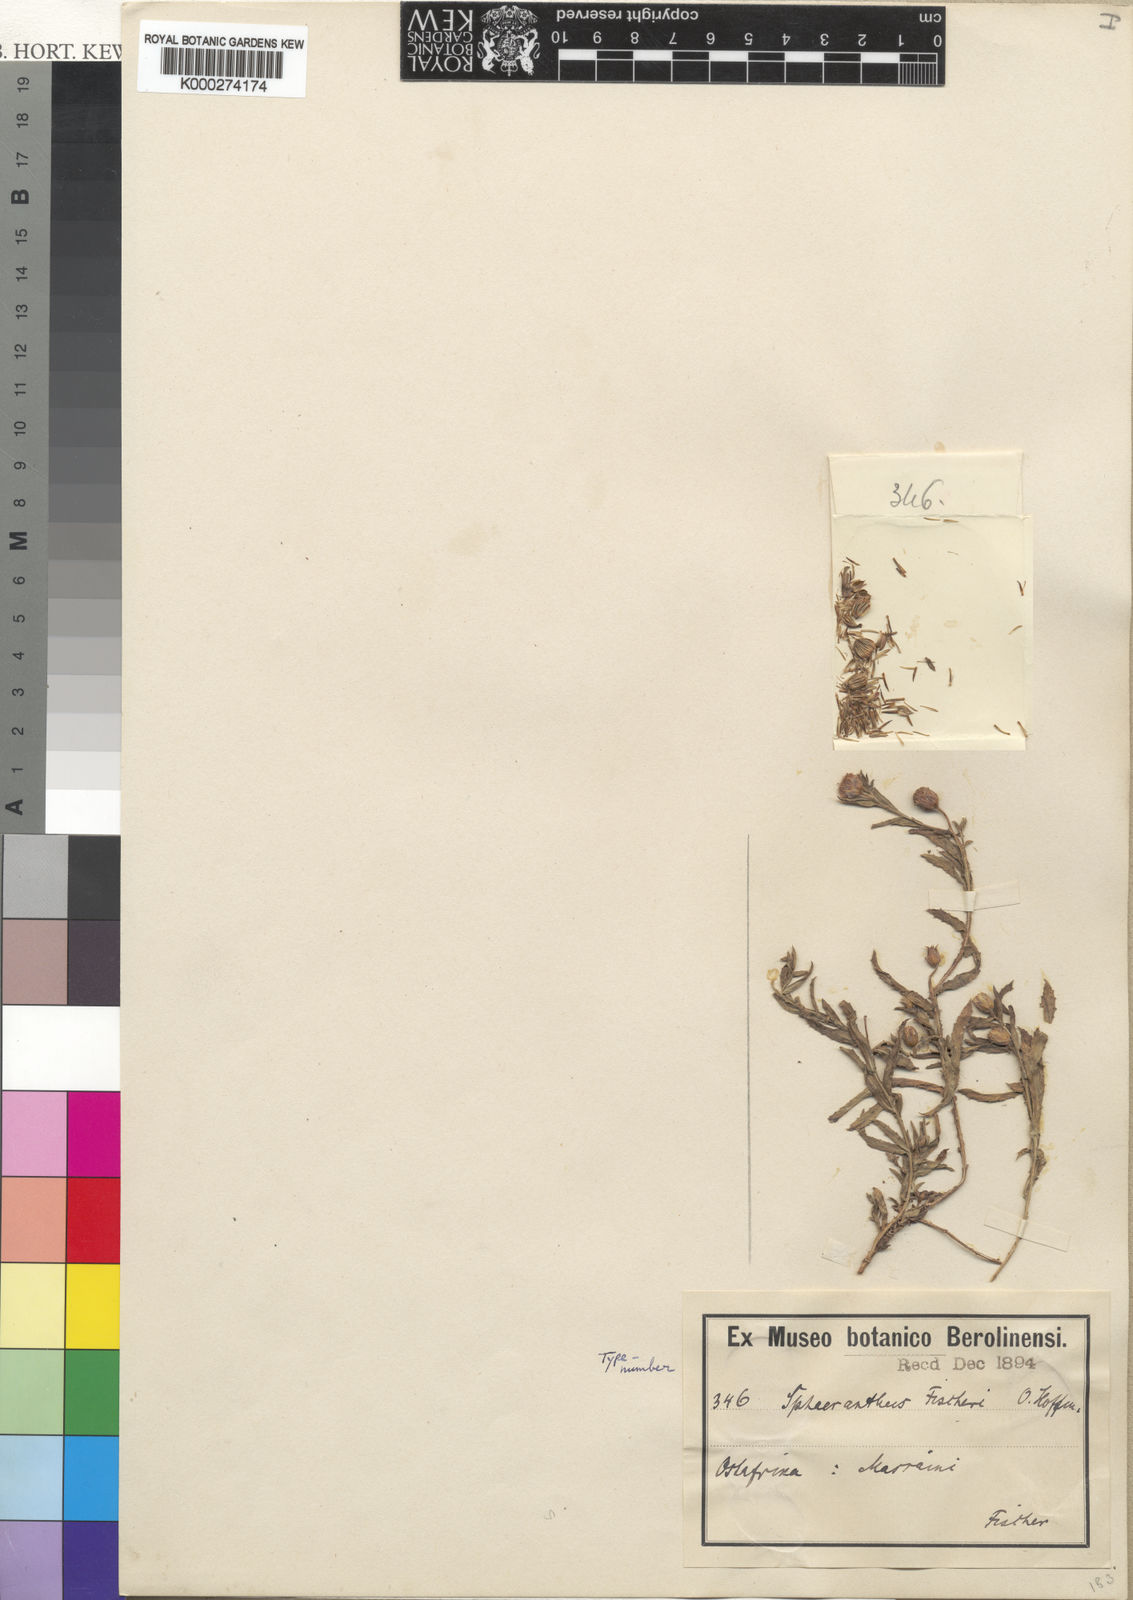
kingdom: Plantae
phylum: Tracheophyta
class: Magnoliopsida
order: Asterales
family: Asteraceae
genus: Sphaeranthus
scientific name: Sphaeranthus fischeri
